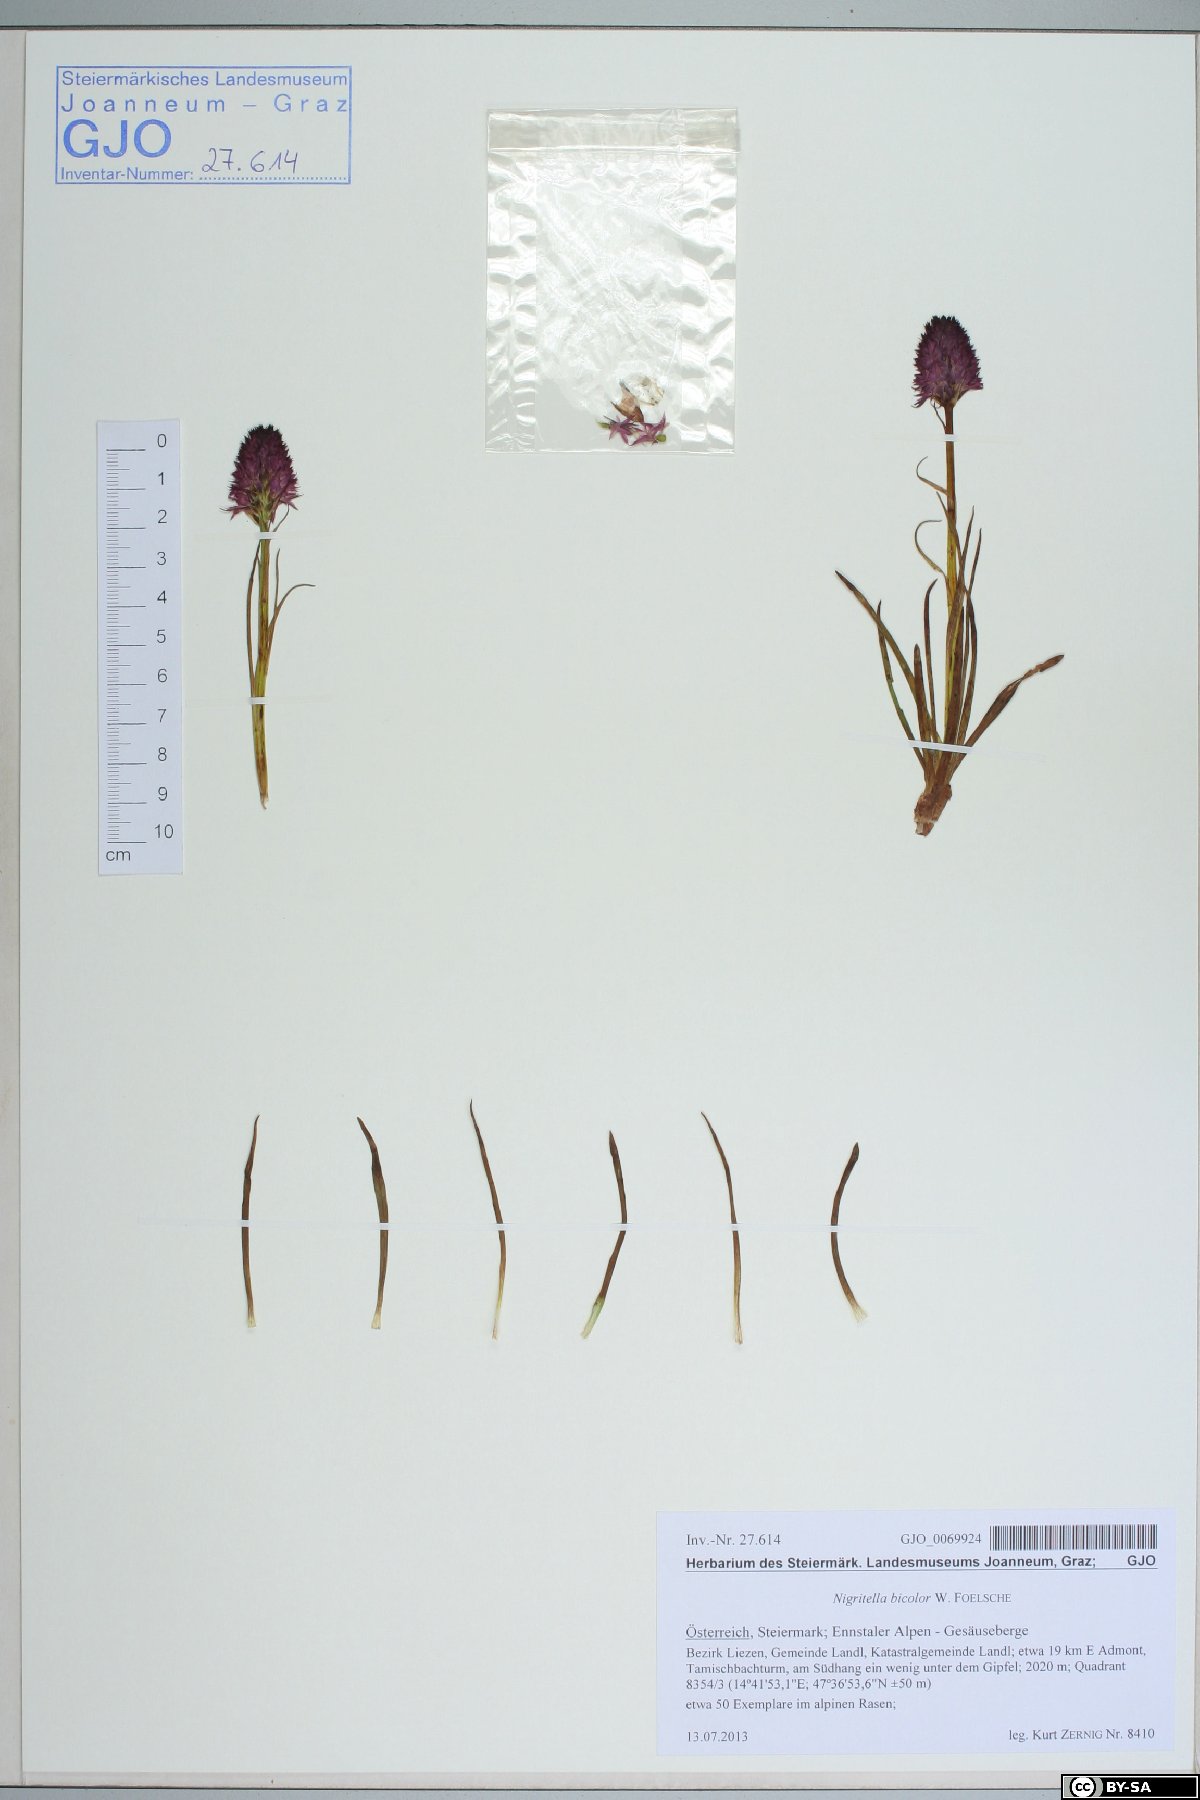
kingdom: Plantae
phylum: Tracheophyta
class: Liliopsida
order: Asparagales
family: Orchidaceae
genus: Gymnadenia
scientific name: Gymnadenia bicolor
